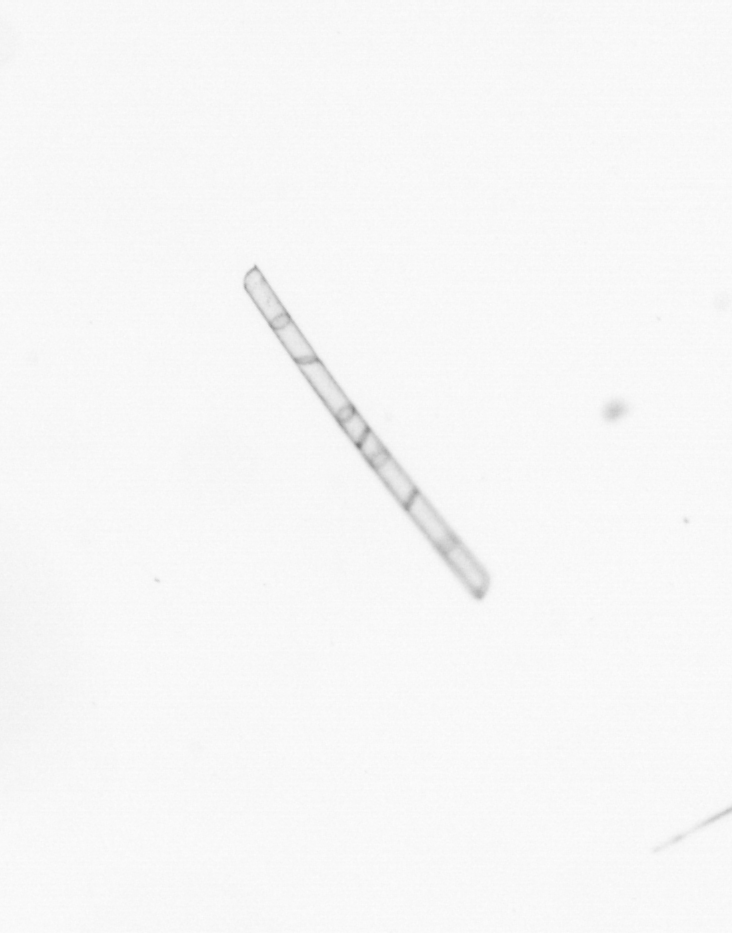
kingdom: Chromista
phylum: Ochrophyta
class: Bacillariophyceae
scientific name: Bacillariophyceae
